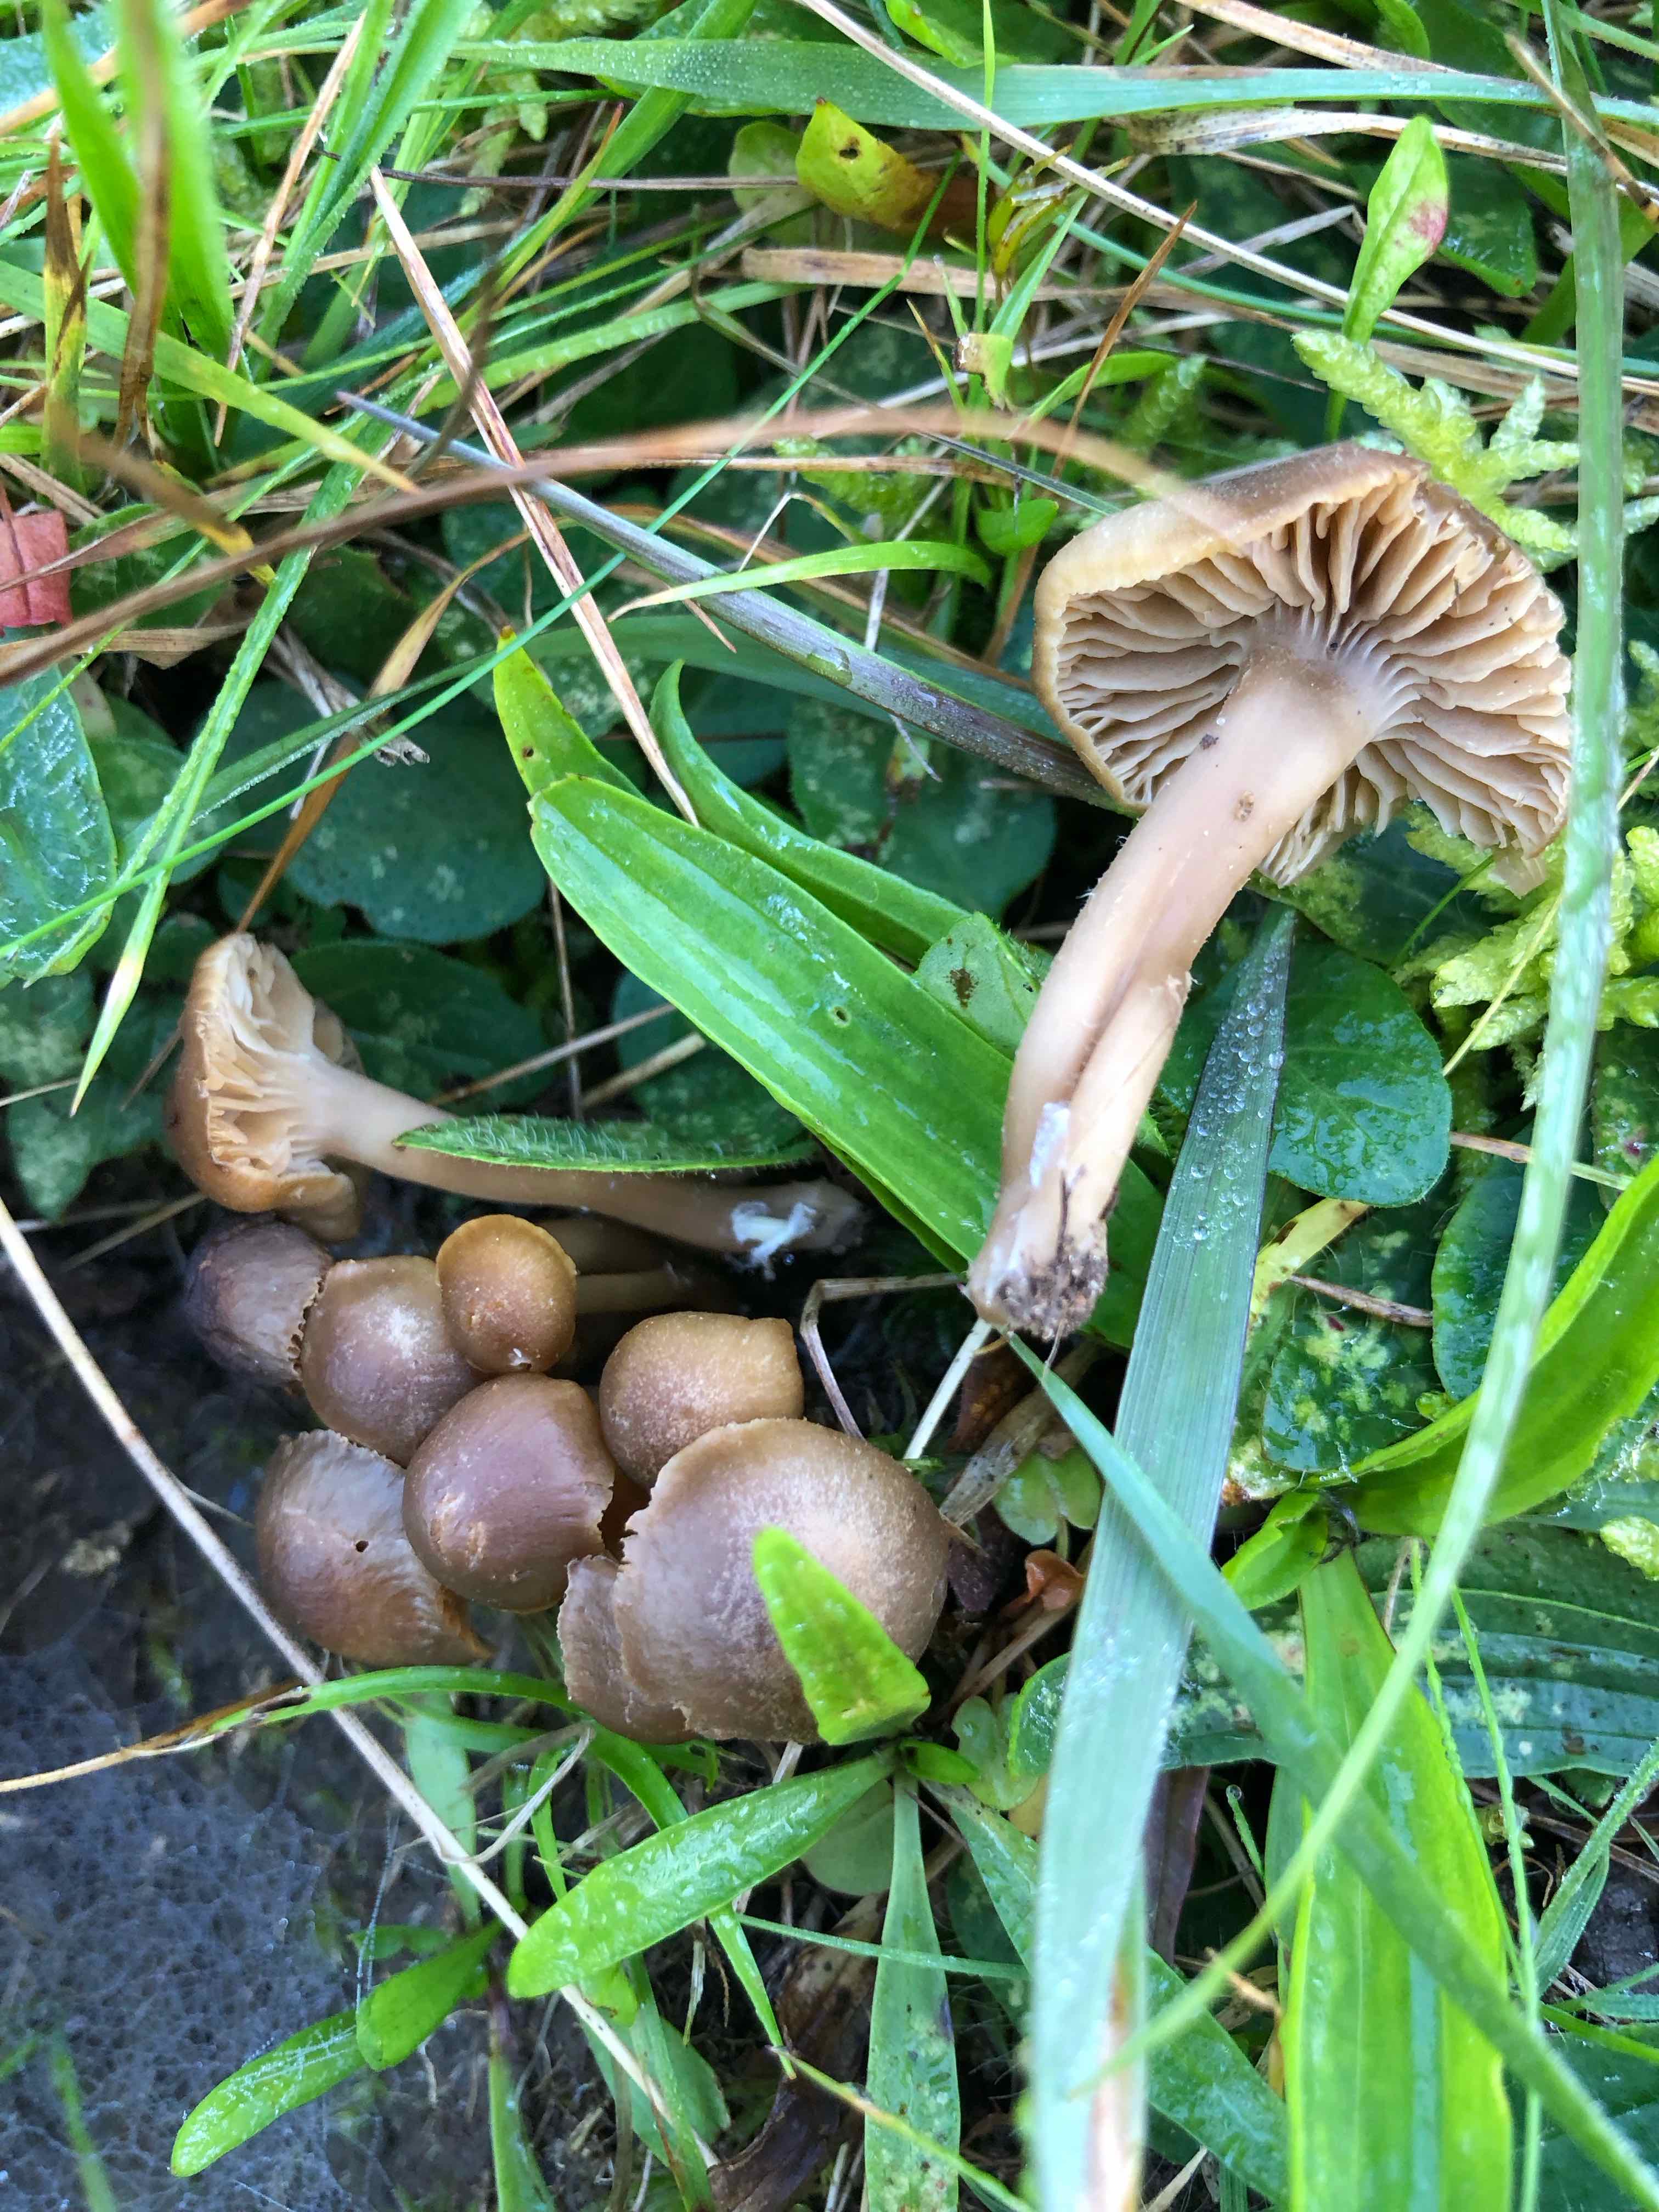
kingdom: Fungi
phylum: Basidiomycota
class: Agaricomycetes
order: Agaricales
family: Clavariaceae
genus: Camarophyllopsis
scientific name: Camarophyllopsis schulzeri
